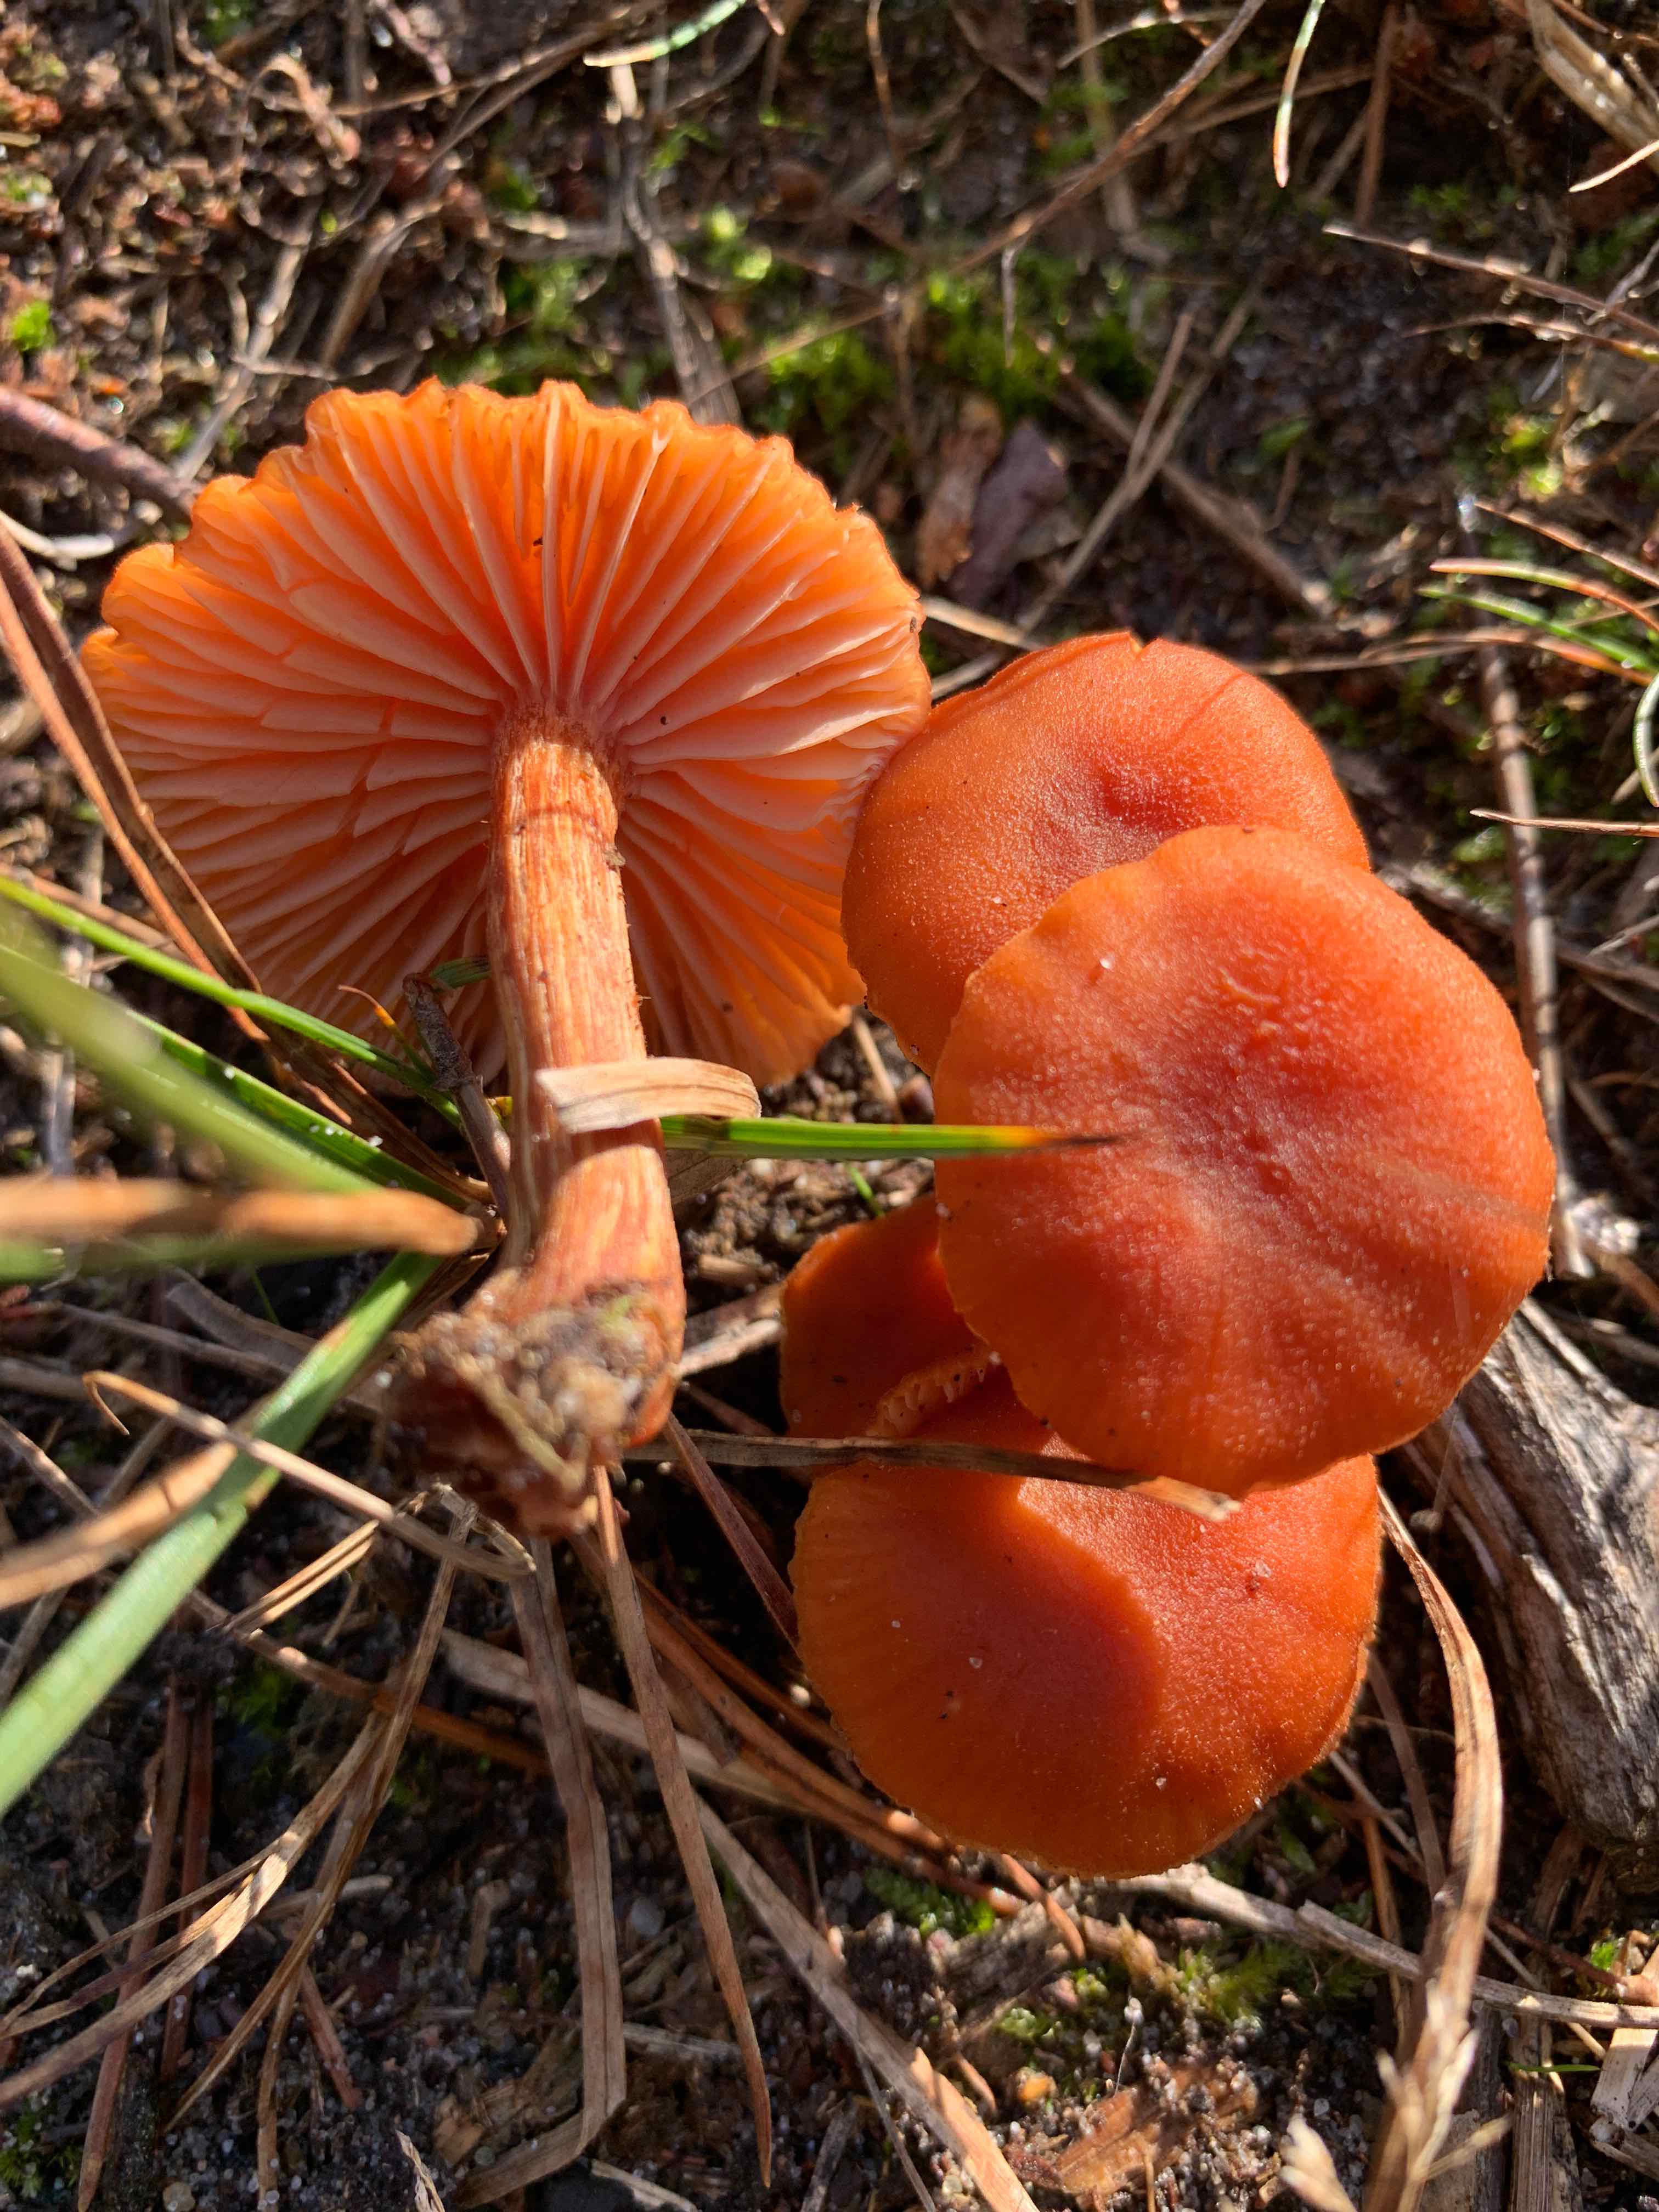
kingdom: Fungi
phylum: Basidiomycota
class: Agaricomycetes
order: Agaricales
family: Hydnangiaceae
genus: Laccaria
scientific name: Laccaria proxima
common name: stor ametysthat
